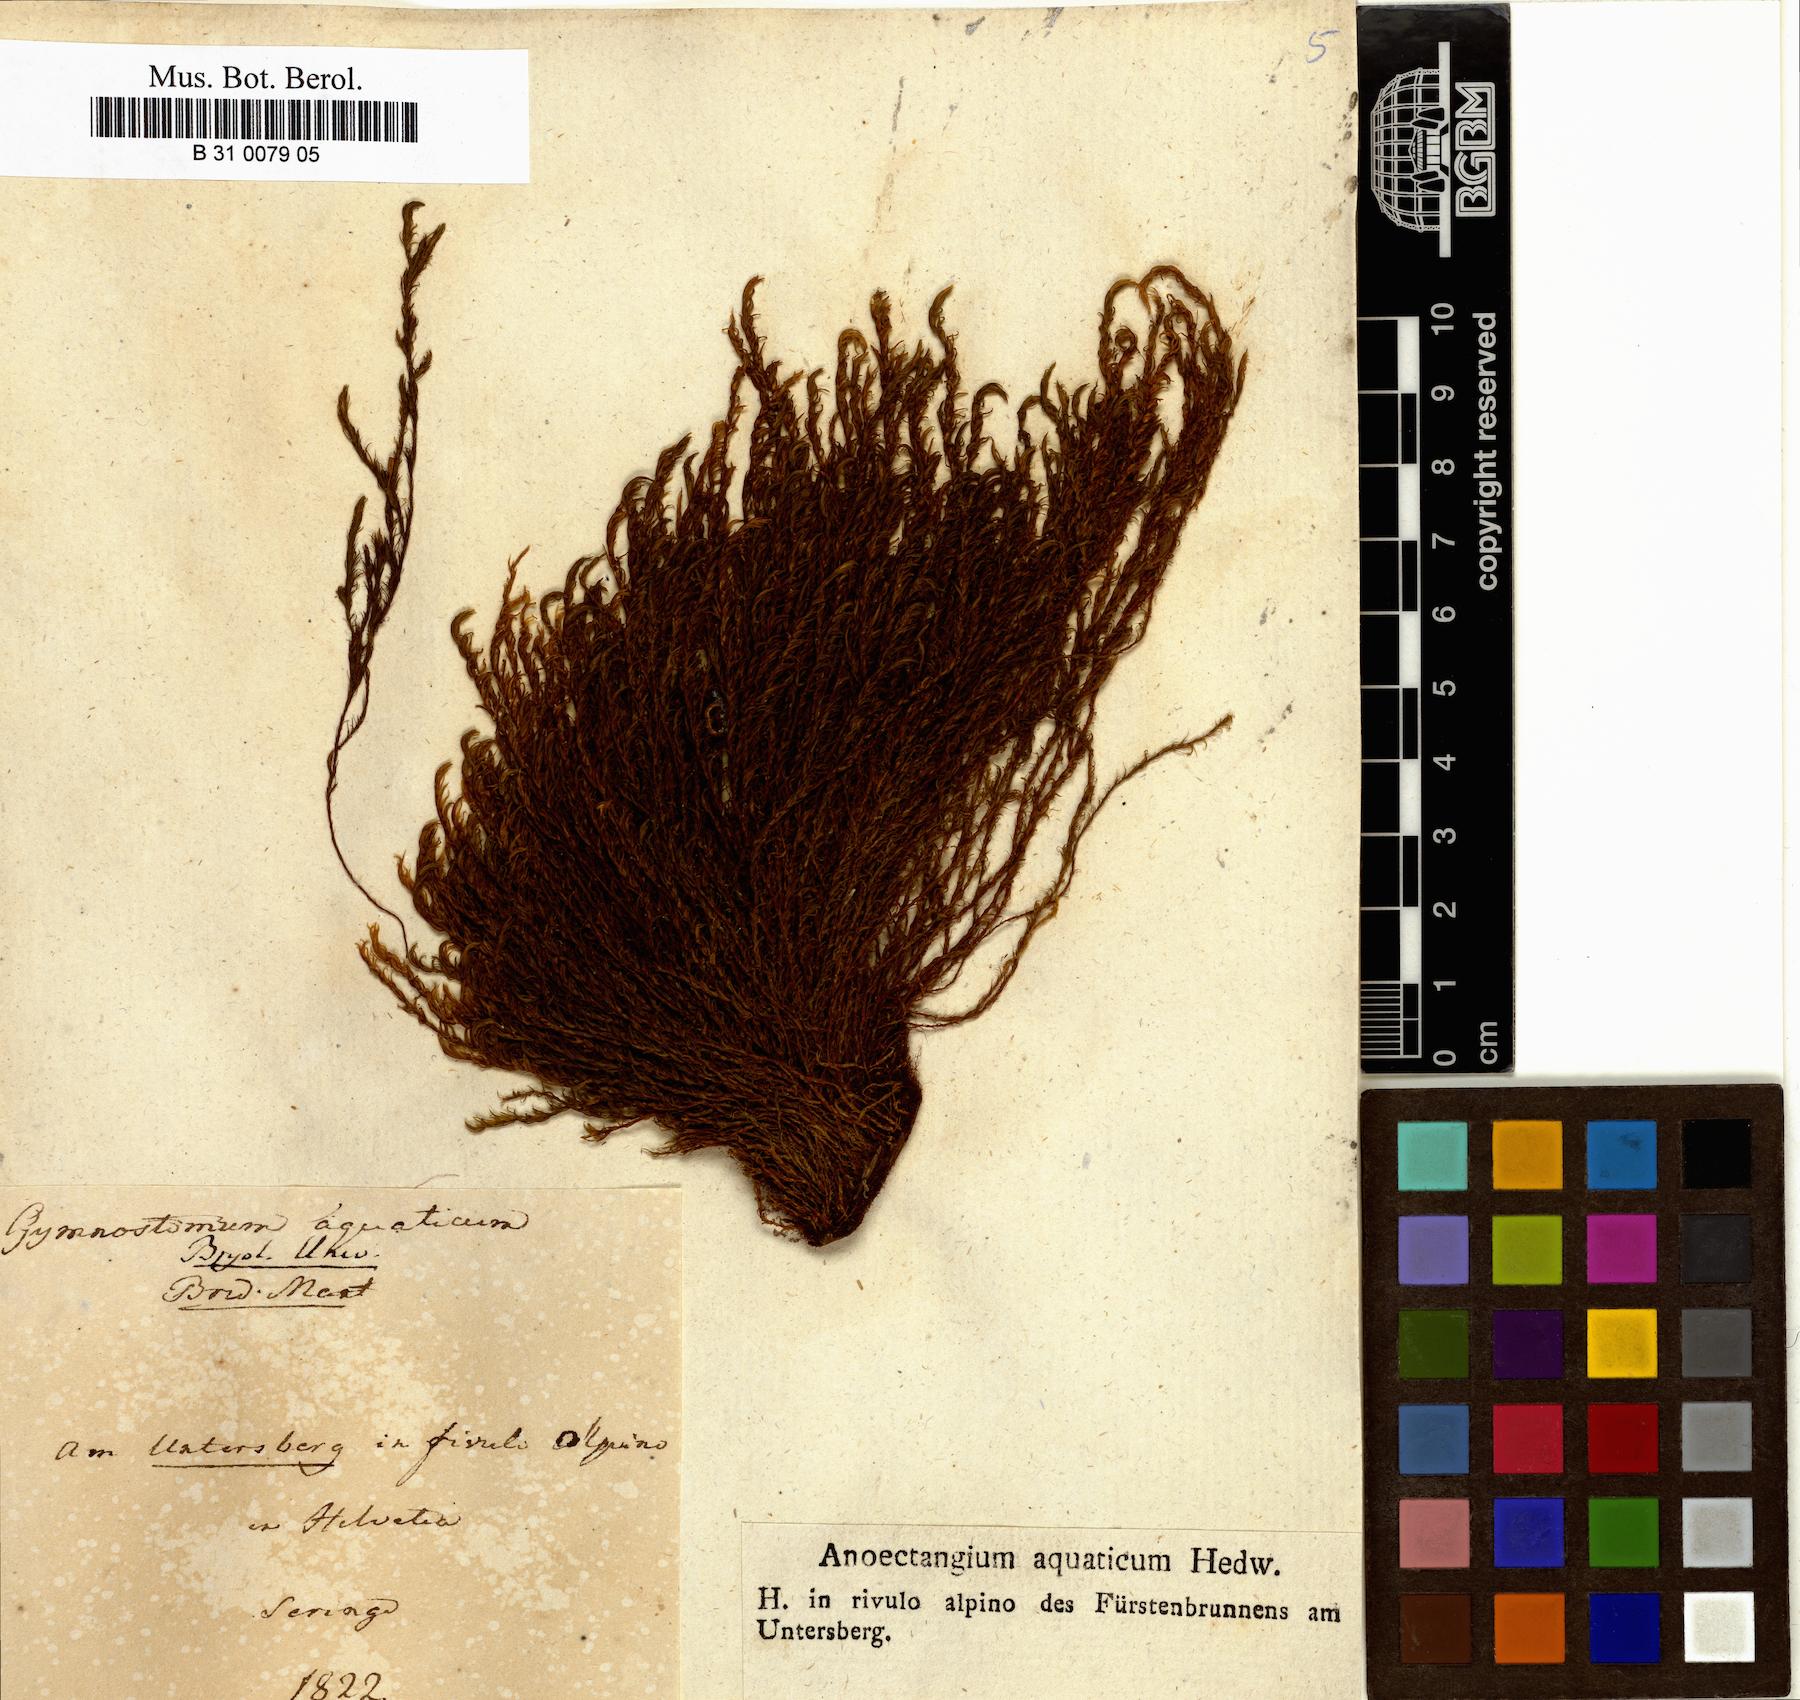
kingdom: Plantae
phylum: Bryophyta
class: Bryopsida
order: Pottiales
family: Pottiaceae
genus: Cinclidotus
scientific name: Cinclidotus aquaticus
